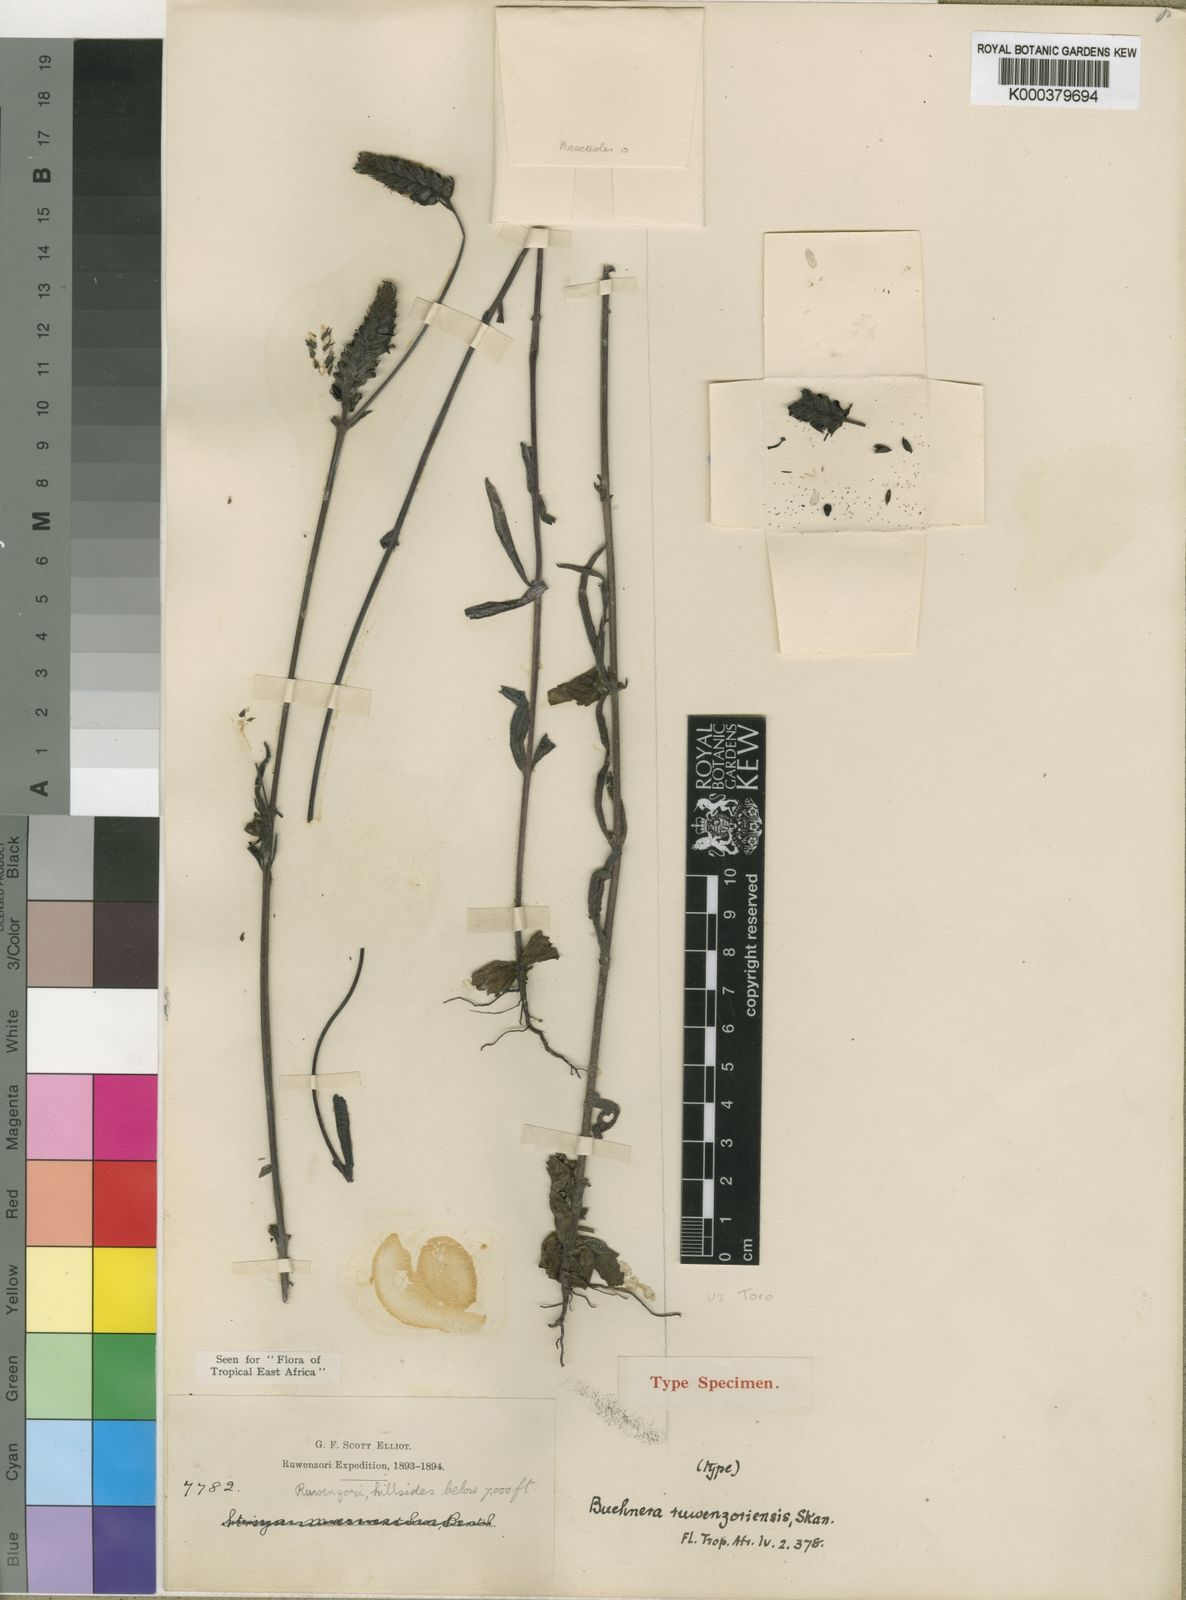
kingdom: Plantae
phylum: Tracheophyta
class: Magnoliopsida
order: Lamiales
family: Orobanchaceae
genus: Buchnera
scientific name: Buchnera ruwenzoriensis
